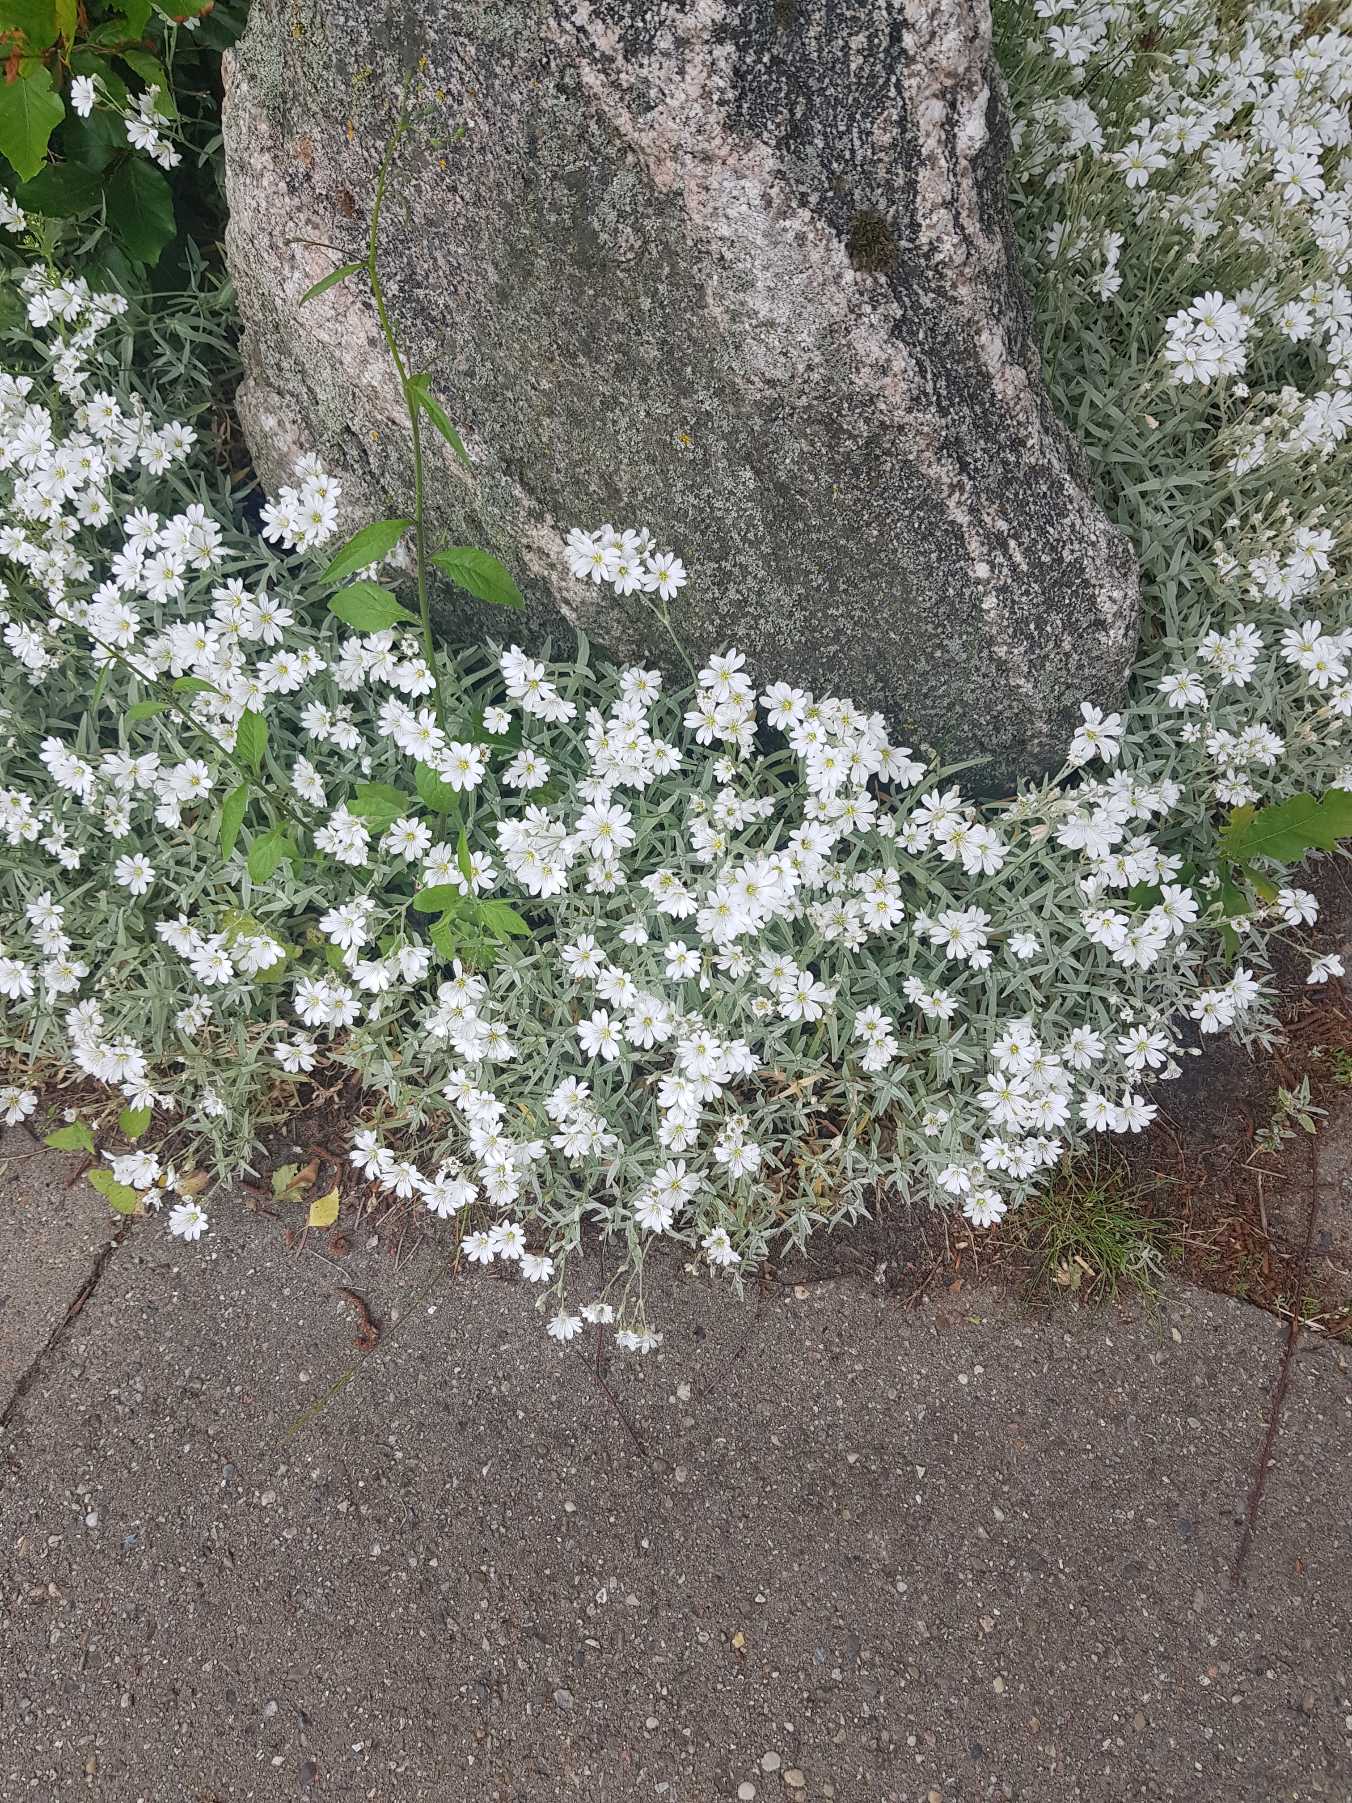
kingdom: Plantae
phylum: Tracheophyta
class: Magnoliopsida
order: Caryophyllales
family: Caryophyllaceae
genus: Cerastium
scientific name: Cerastium tomentosum
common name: Filtet hønsetarm
